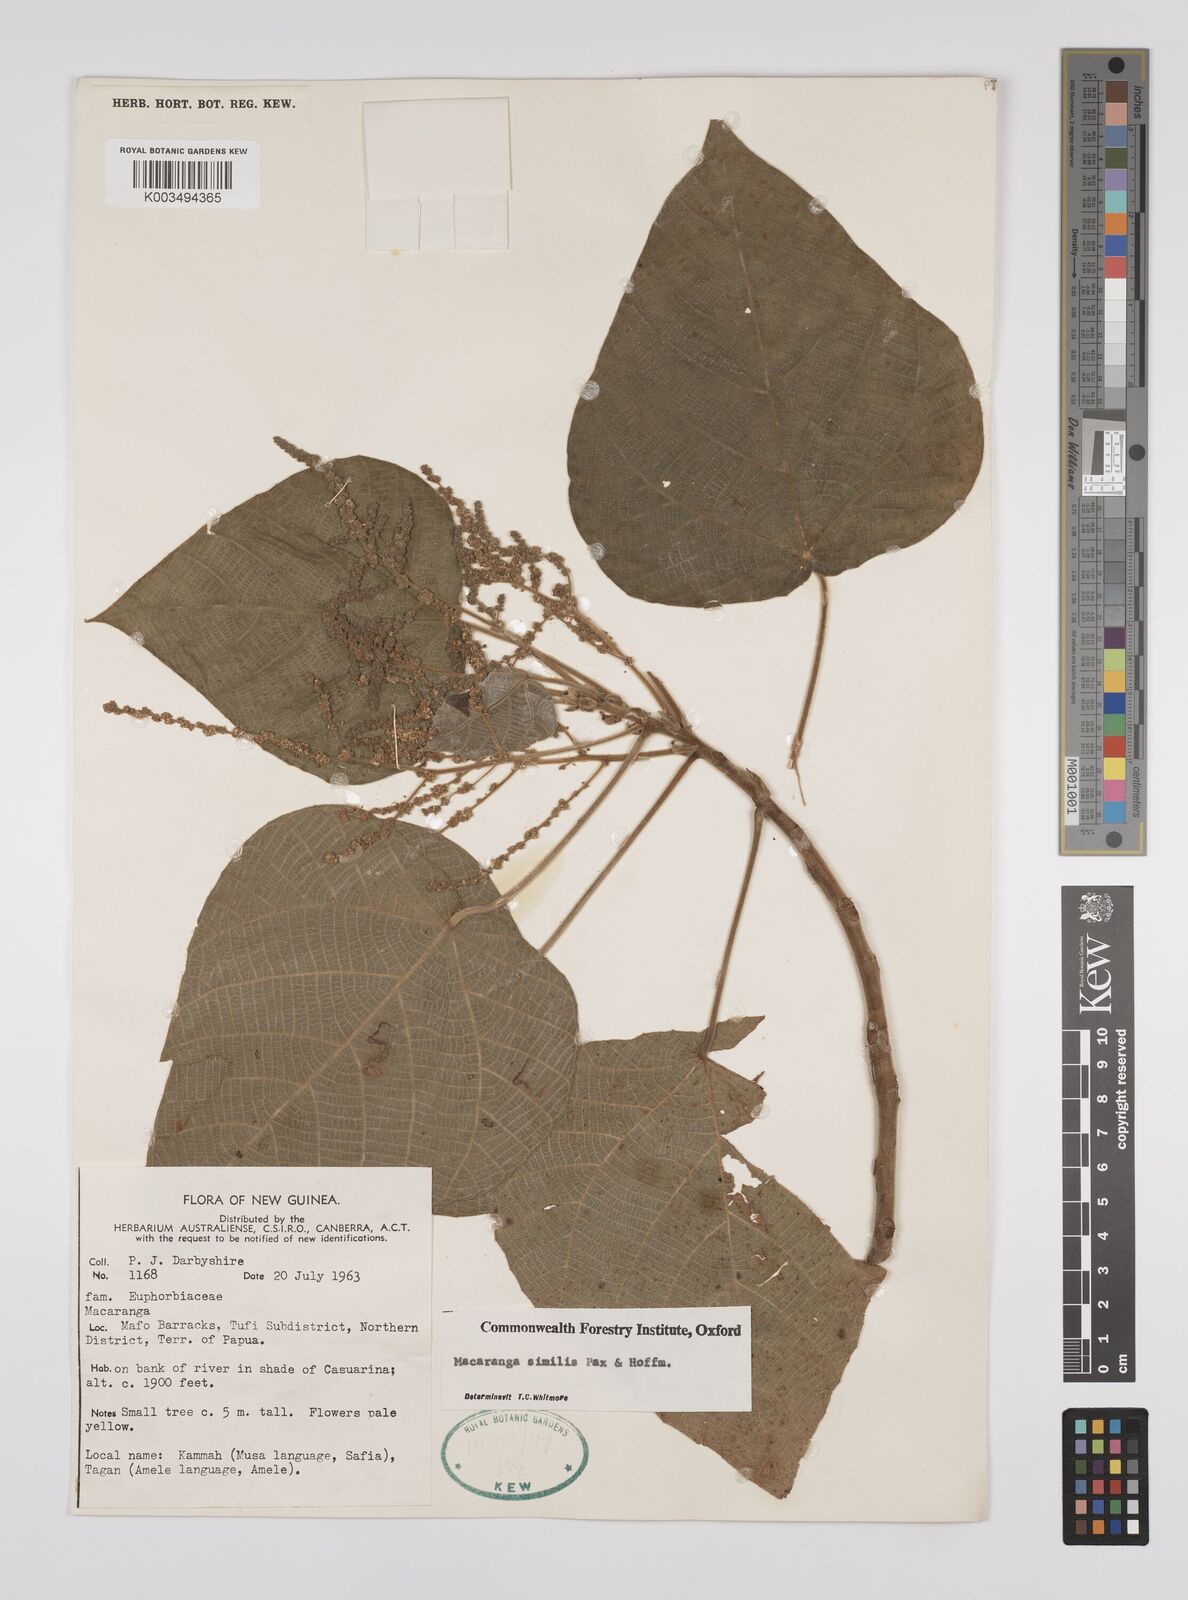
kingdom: Plantae
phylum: Tracheophyta
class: Magnoliopsida
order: Malpighiales
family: Euphorbiaceae
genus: Macaranga
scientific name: Macaranga similis
